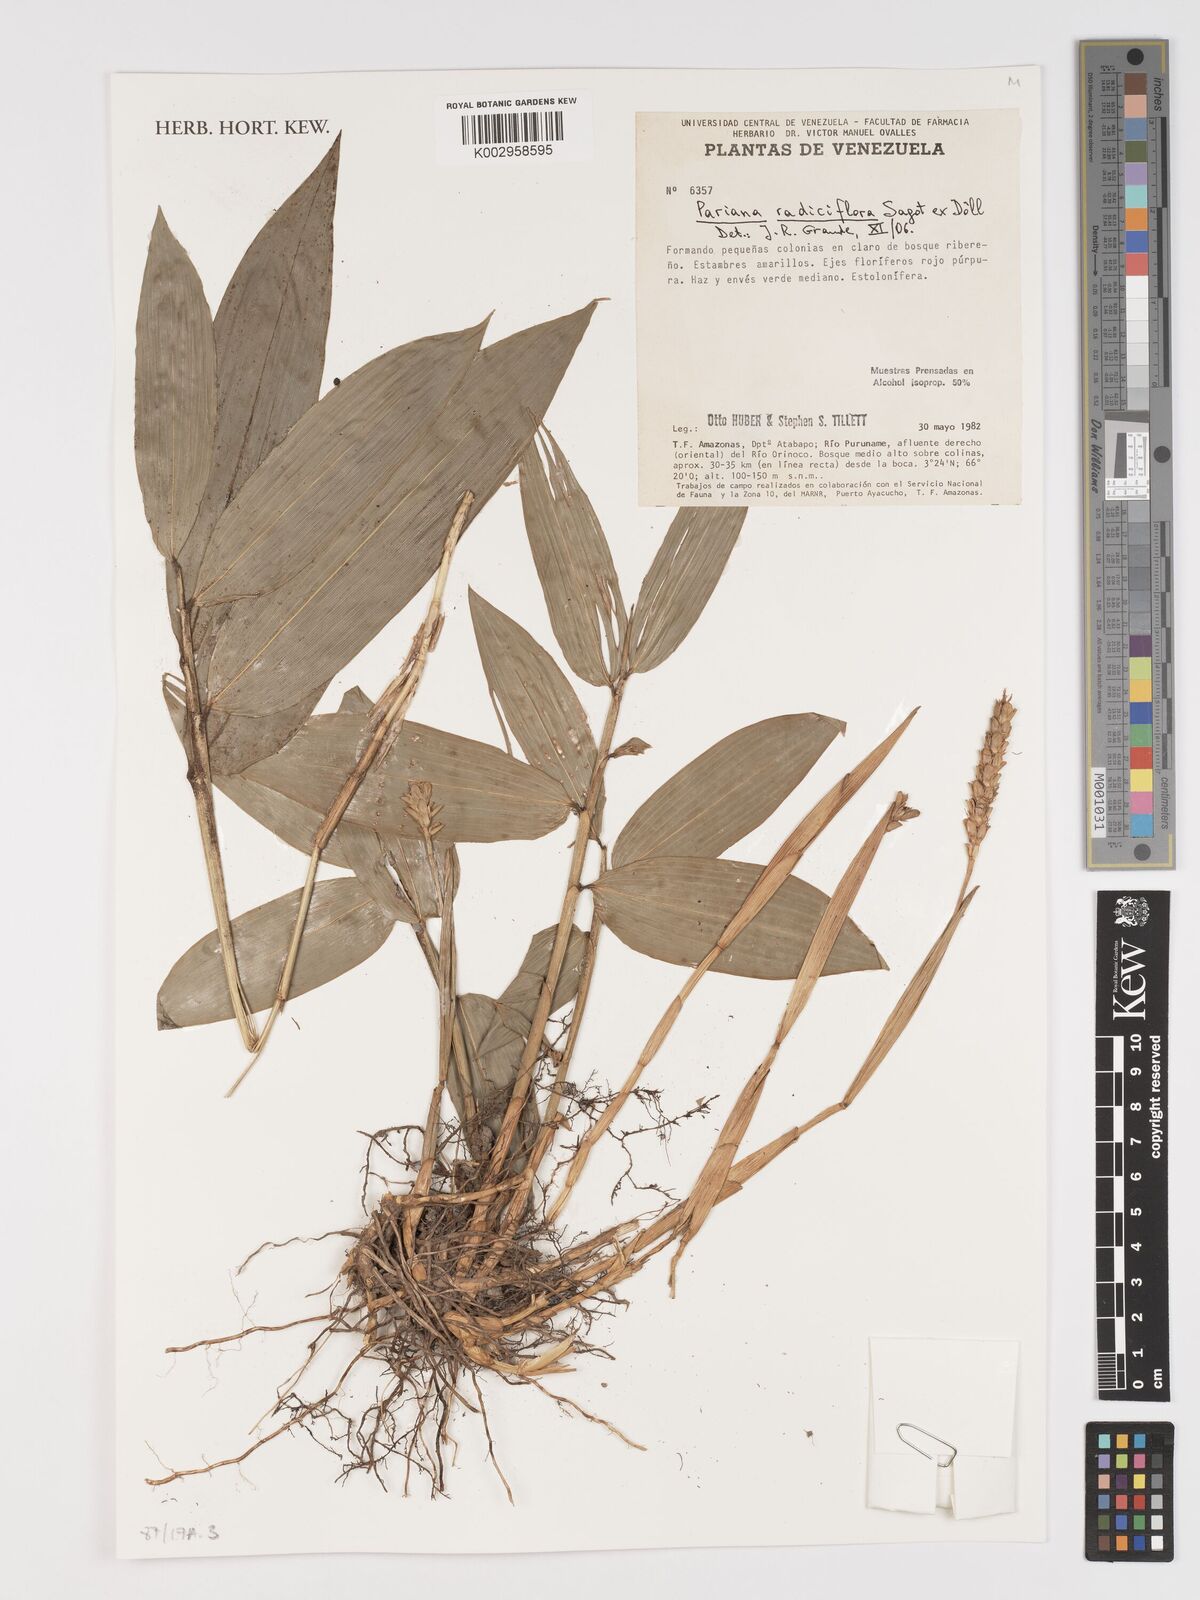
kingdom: Plantae
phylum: Tracheophyta
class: Liliopsida
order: Poales
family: Poaceae
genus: Pariana
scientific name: Pariana radiciflora
